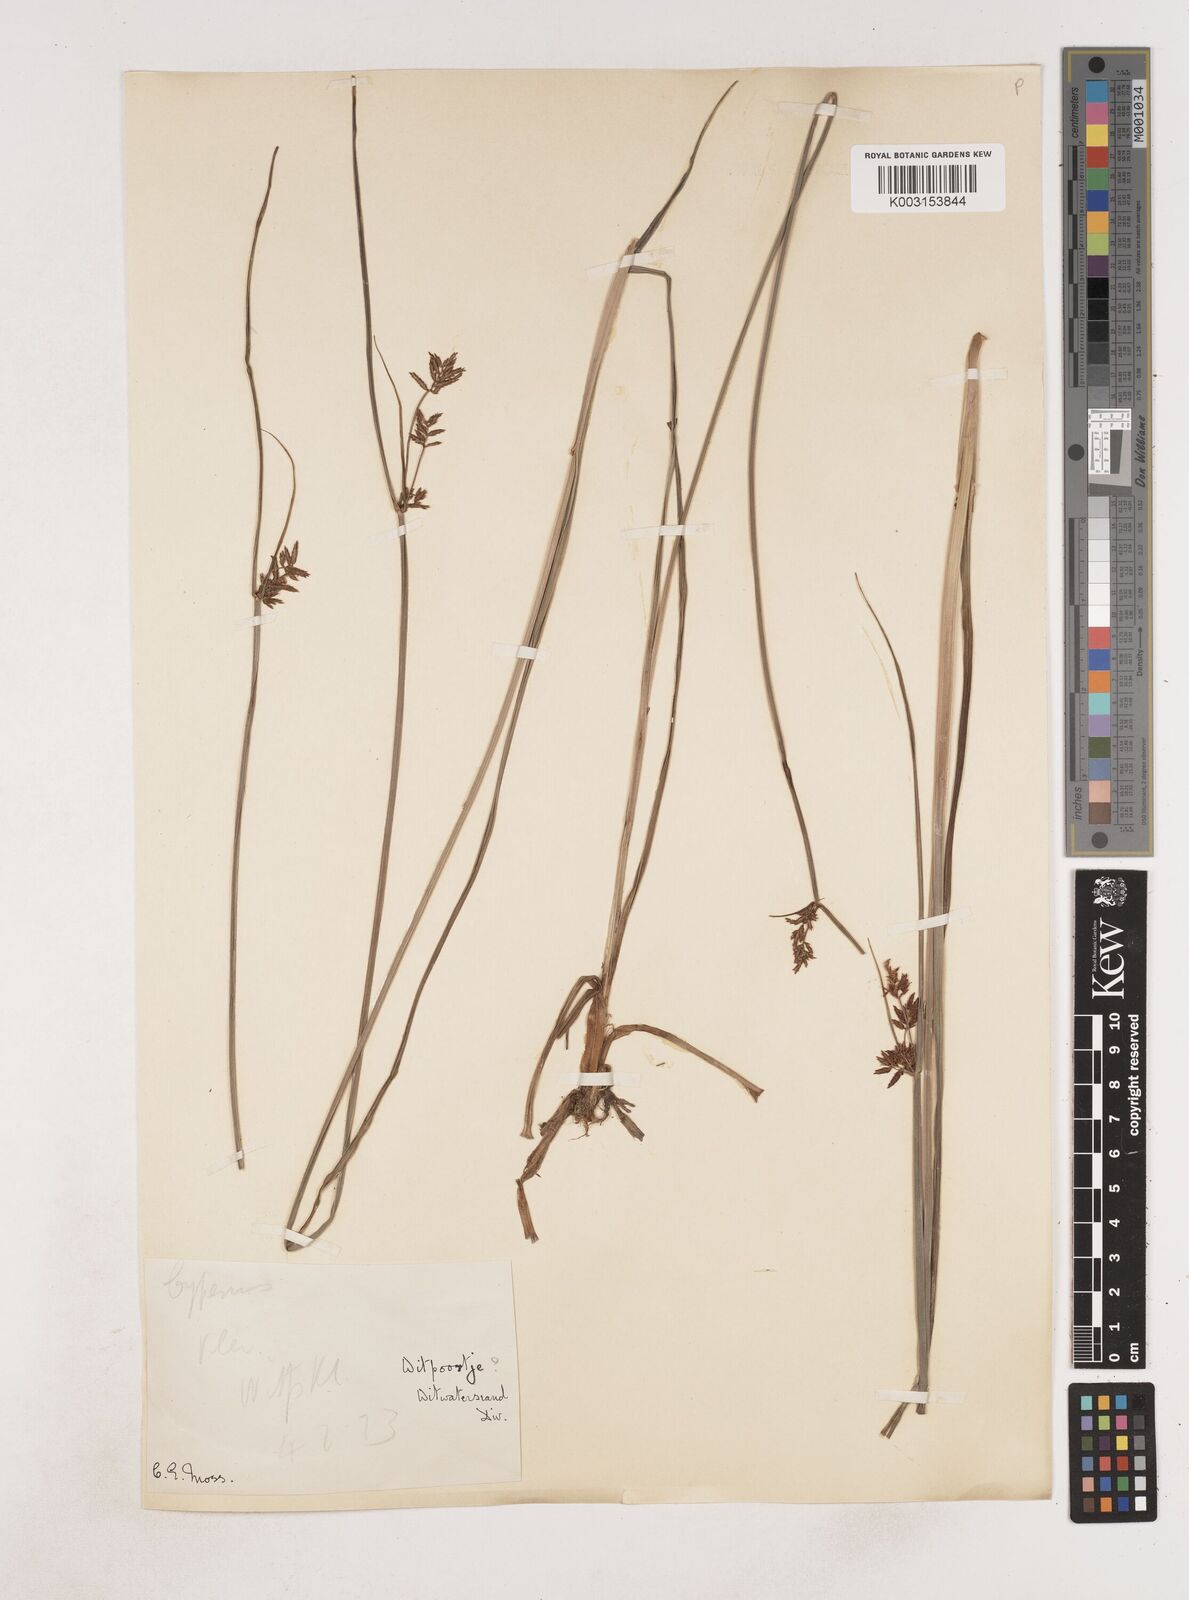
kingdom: Plantae
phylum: Tracheophyta
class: Liliopsida
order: Poales
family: Cyperaceae
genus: Cyperus
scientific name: Cyperus
